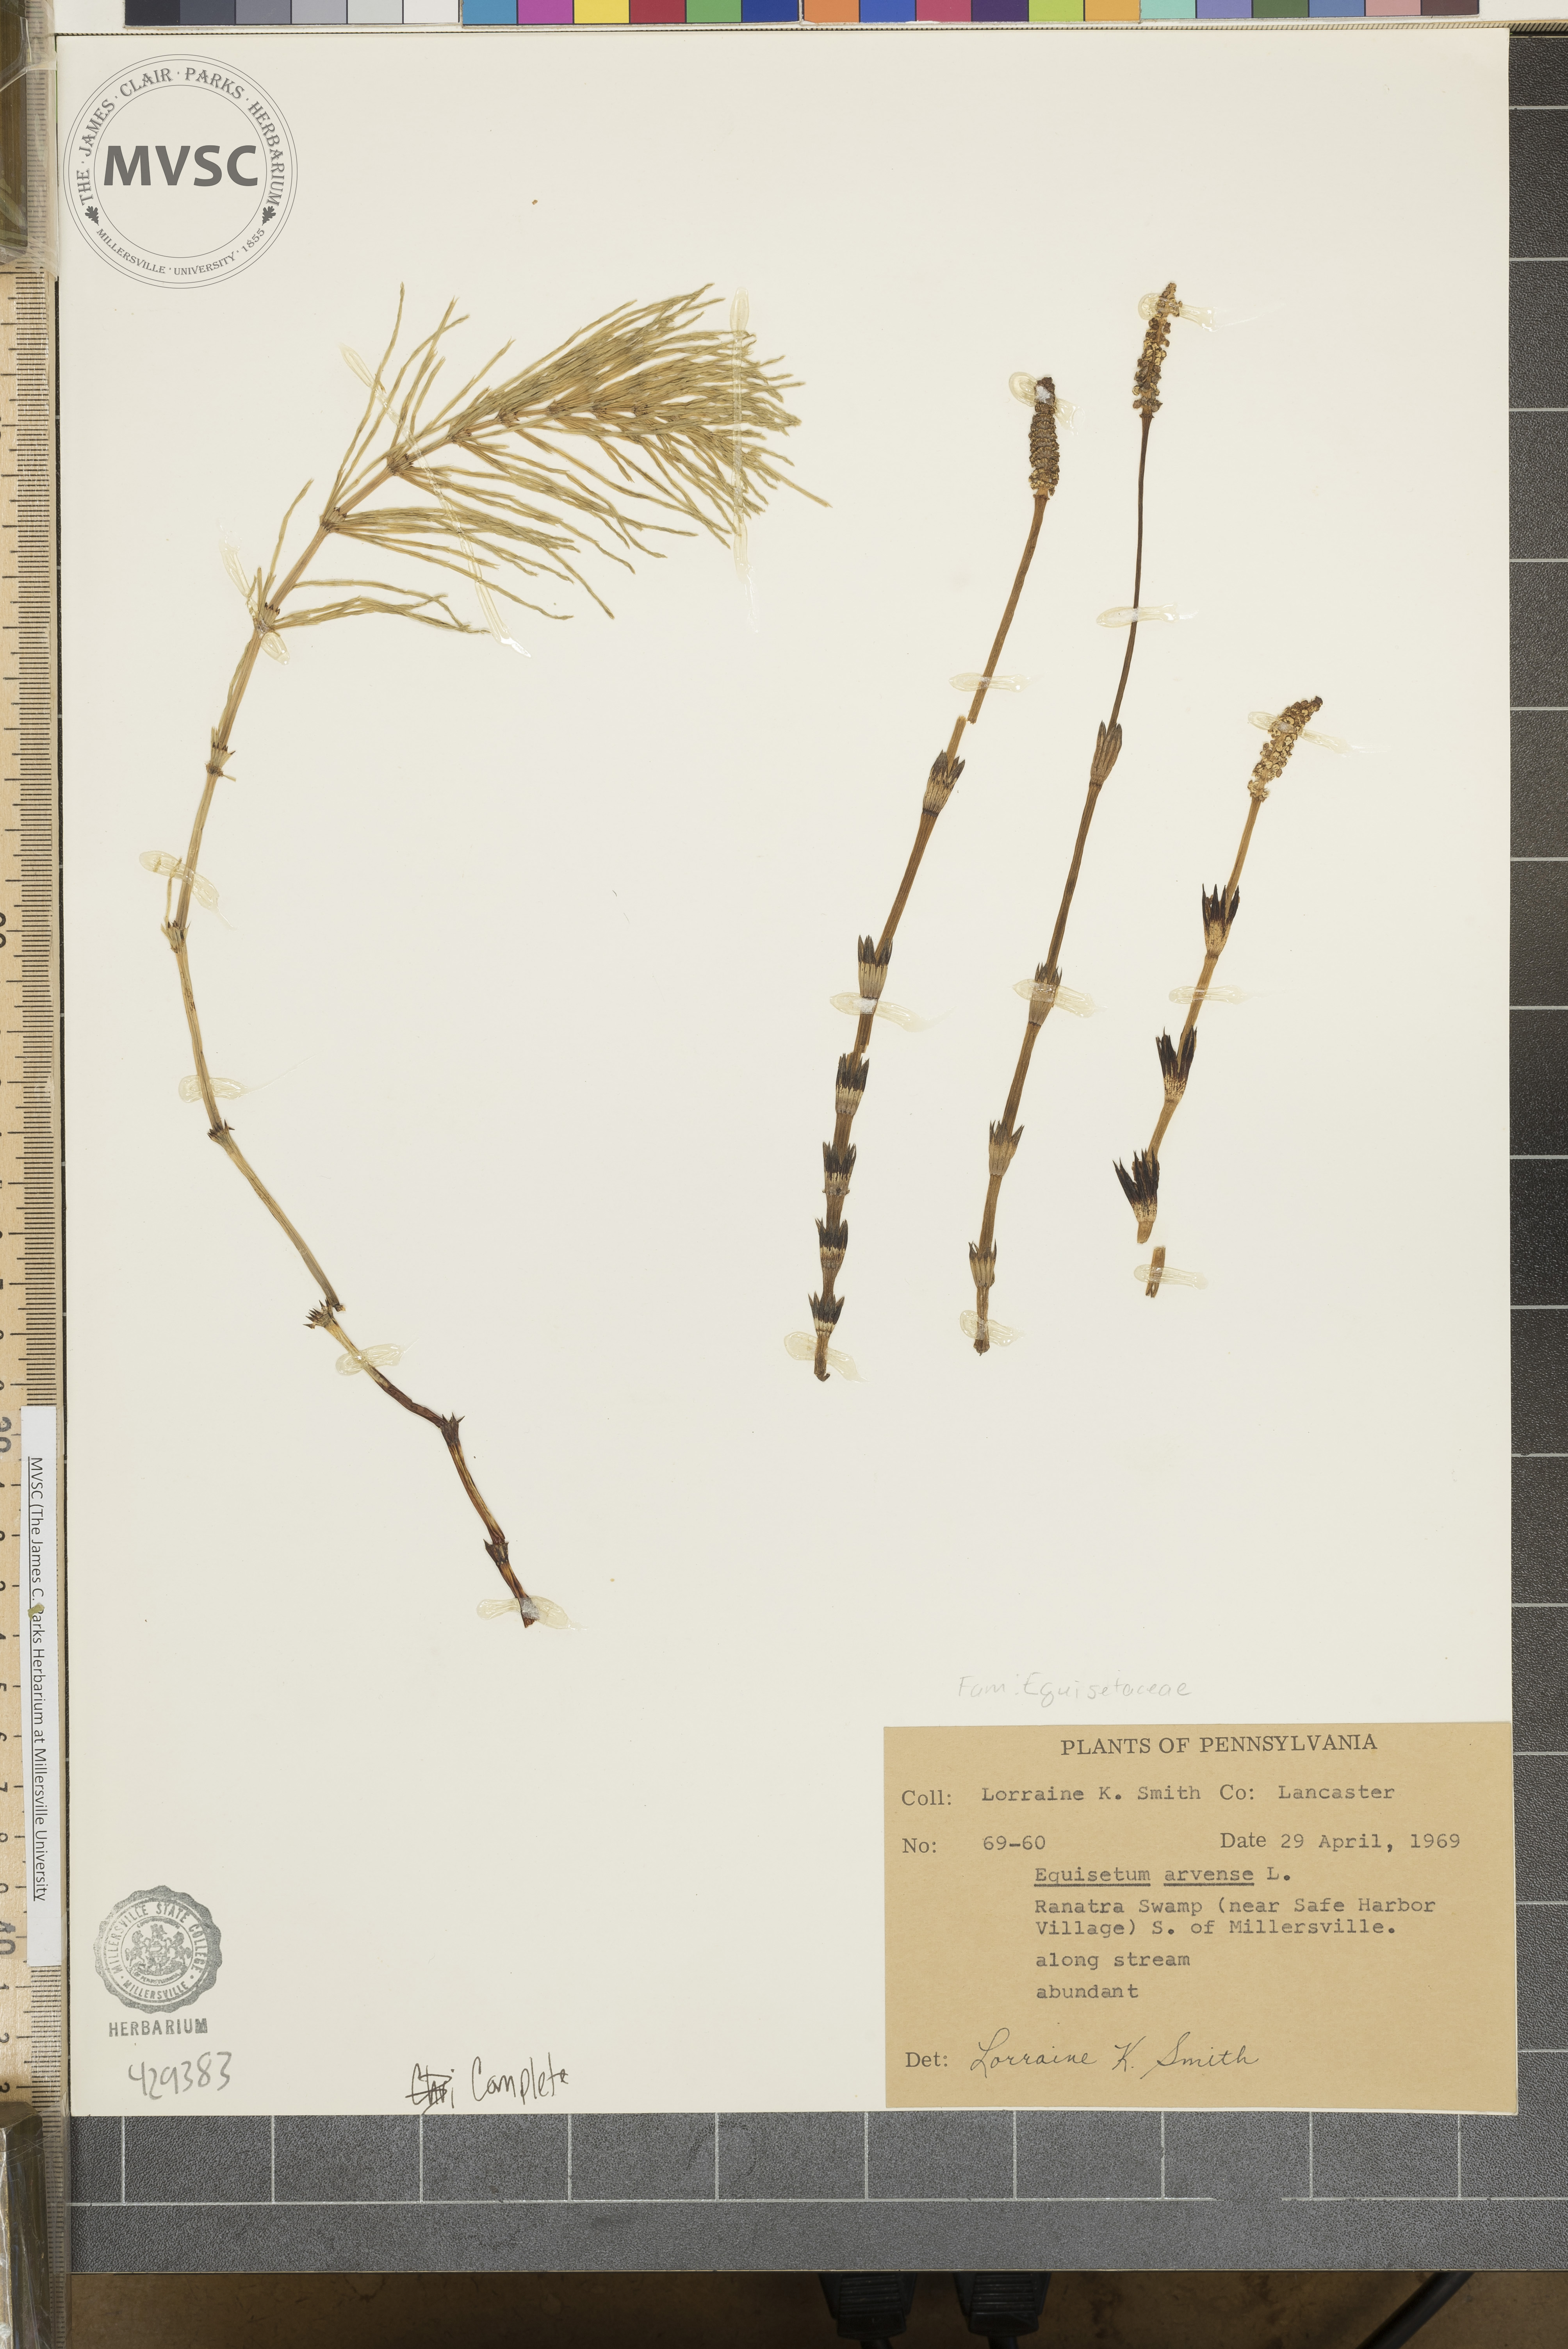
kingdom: Plantae
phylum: Tracheophyta
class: Polypodiopsida
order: Equisetales
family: Equisetaceae
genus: Equisetum
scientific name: Equisetum arvense
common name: Field horsetail
